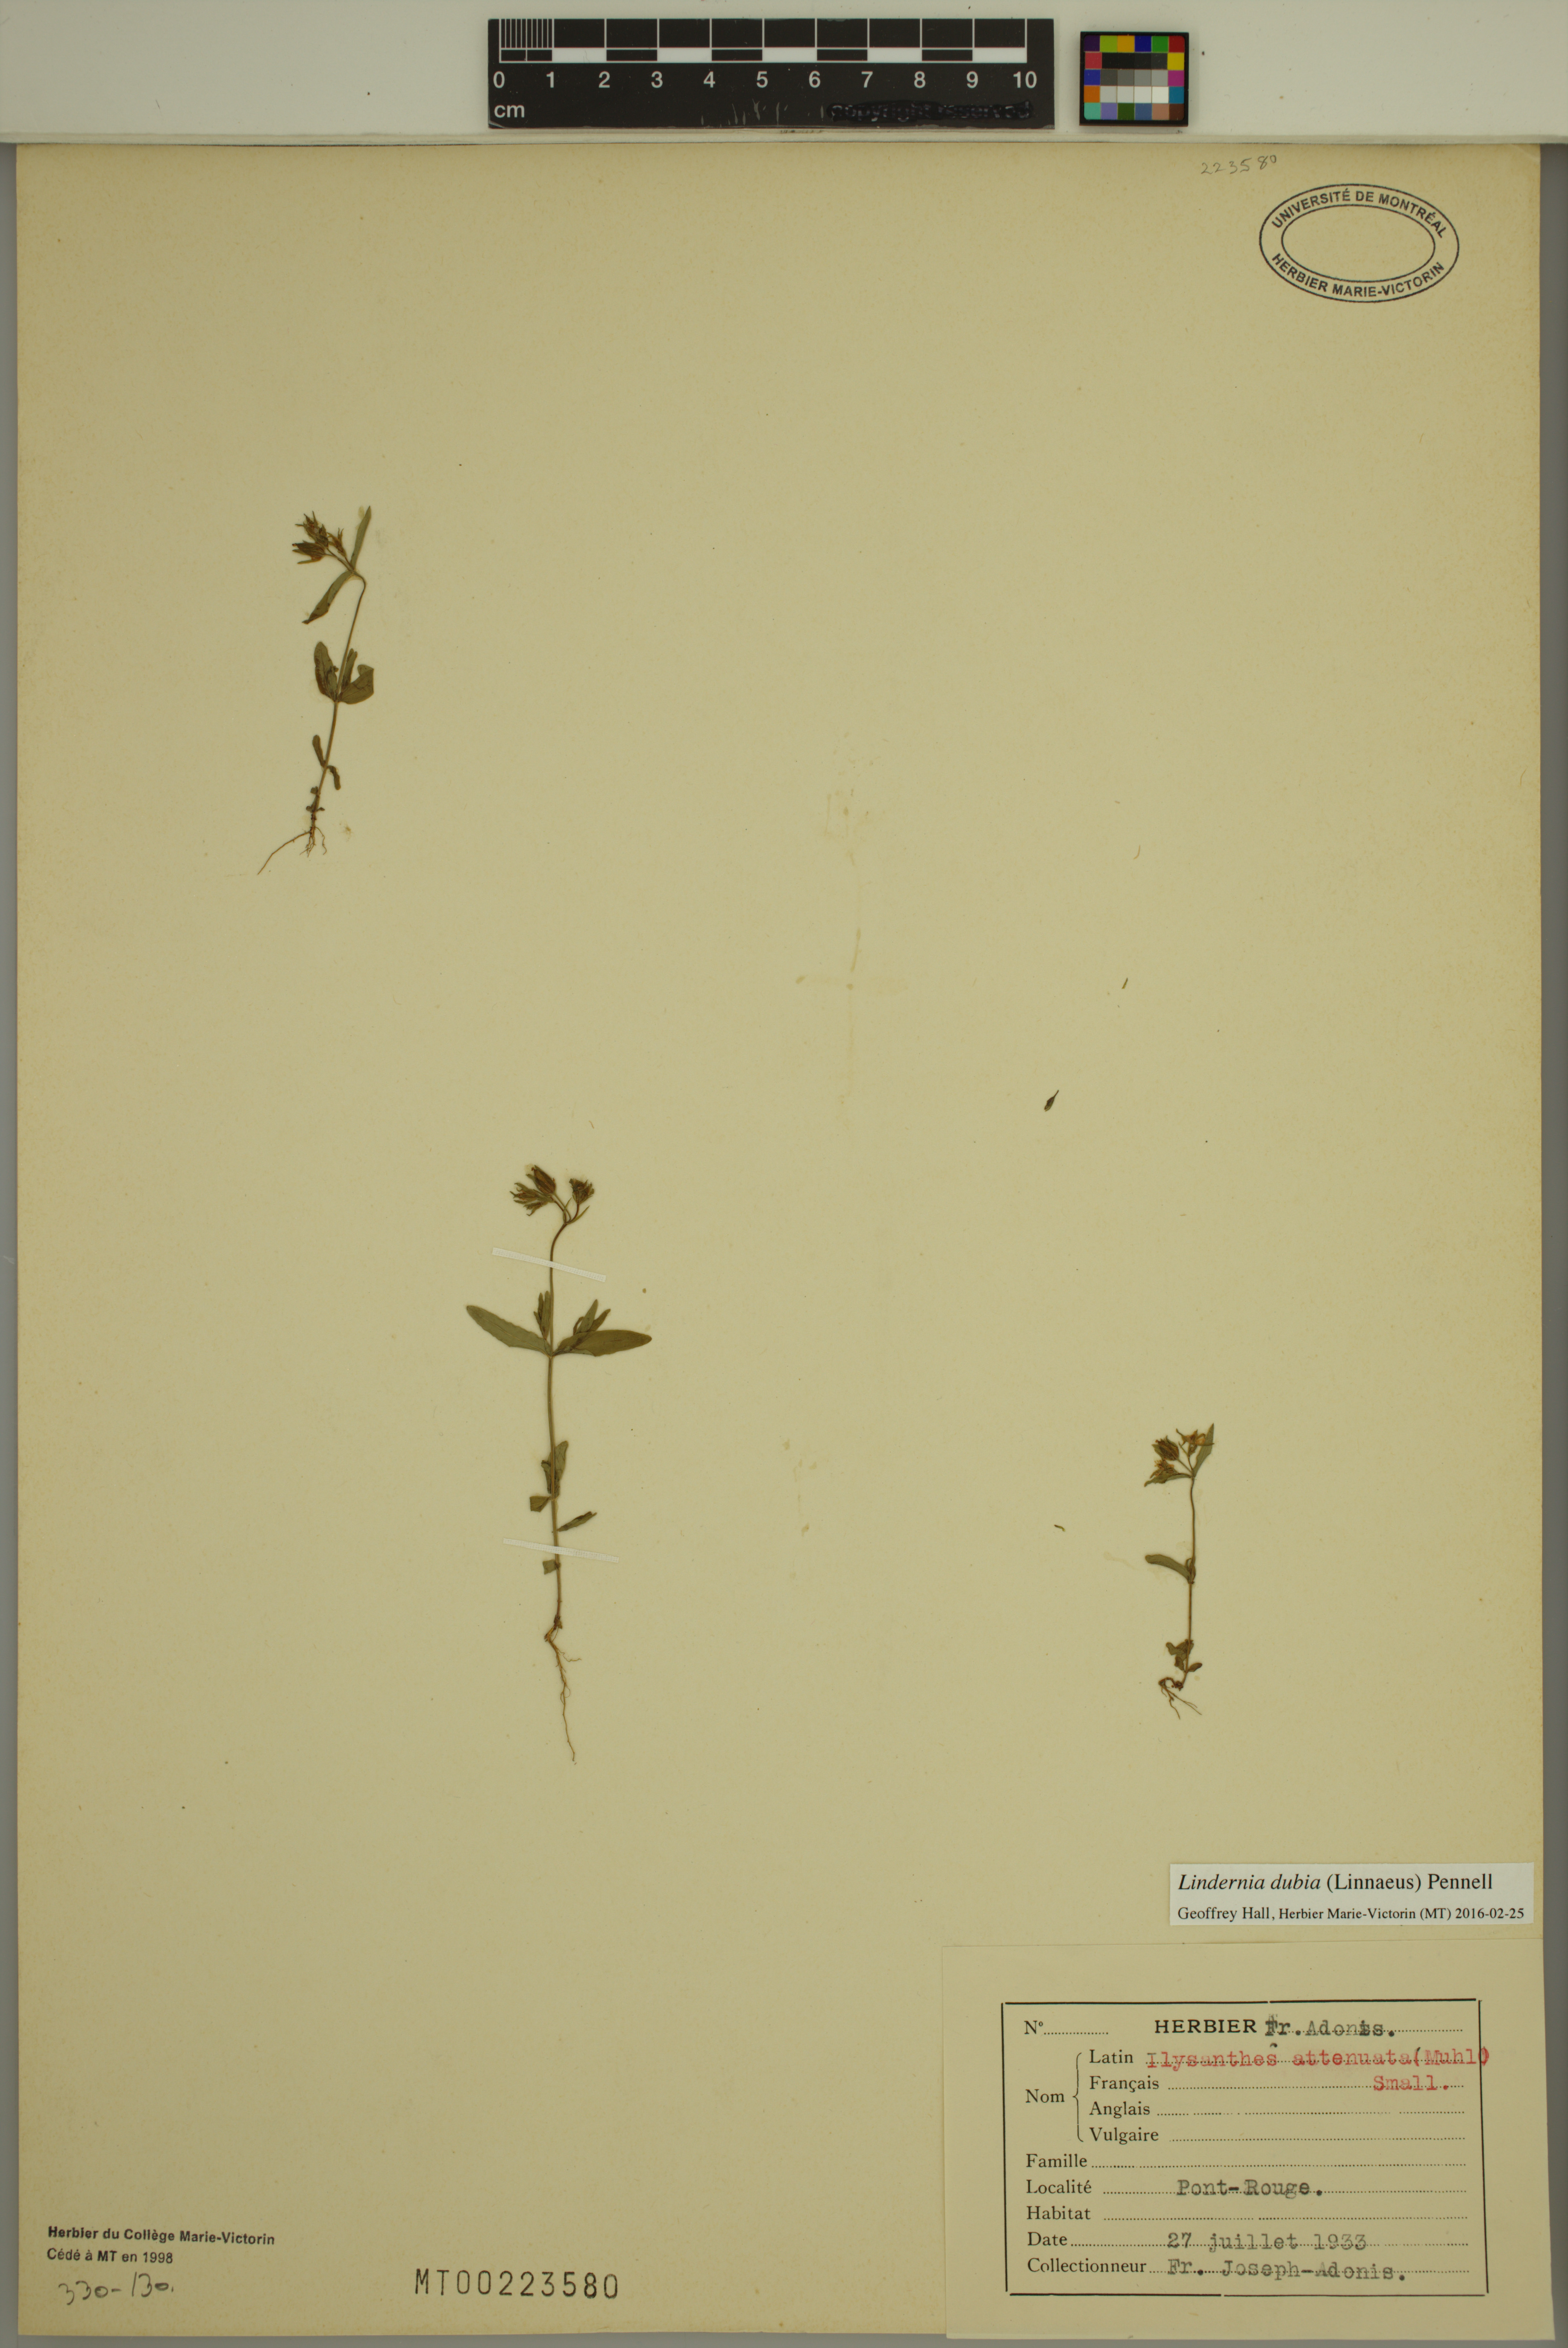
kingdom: Plantae
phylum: Tracheophyta
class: Magnoliopsida
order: Lamiales
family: Linderniaceae
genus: Lindernia
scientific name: Lindernia dubia
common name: Annual false pimpernel
